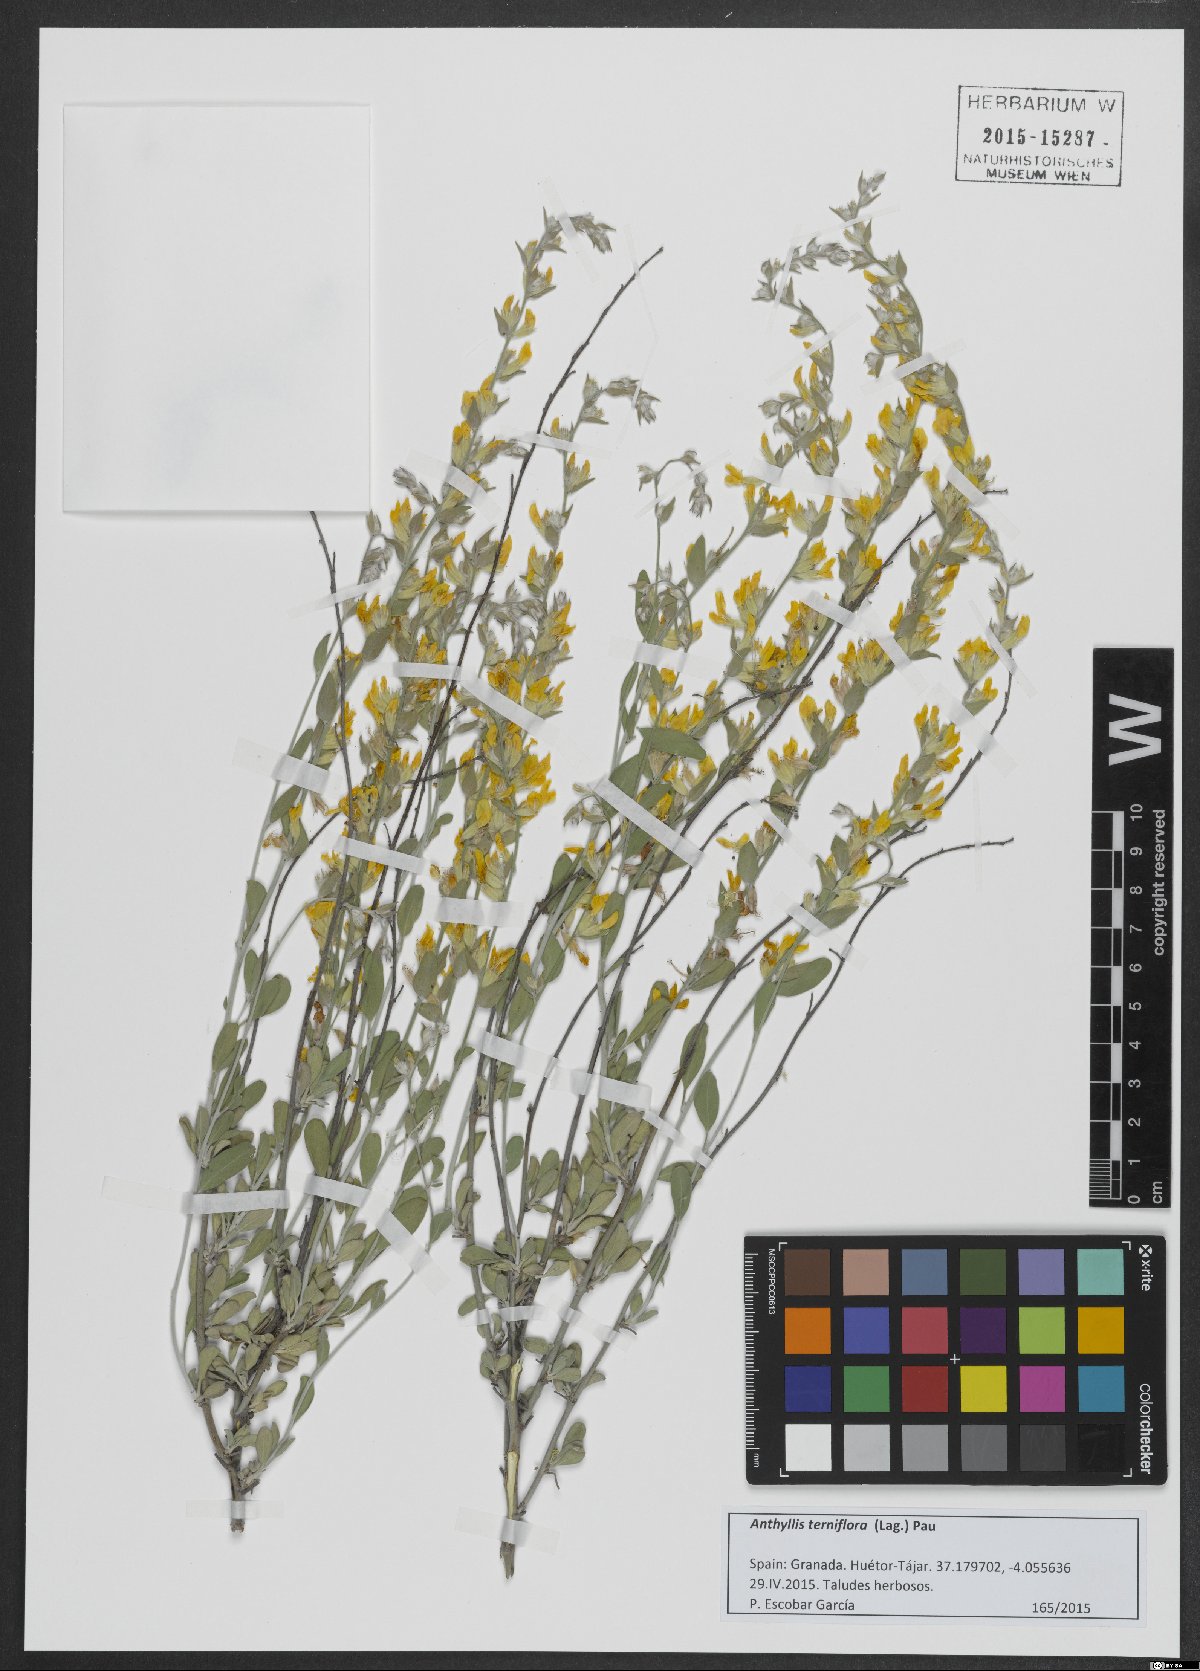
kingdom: Plantae
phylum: Tracheophyta
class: Magnoliopsida
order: Fabales
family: Fabaceae
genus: Anthyllis
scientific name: Anthyllis terniflora
